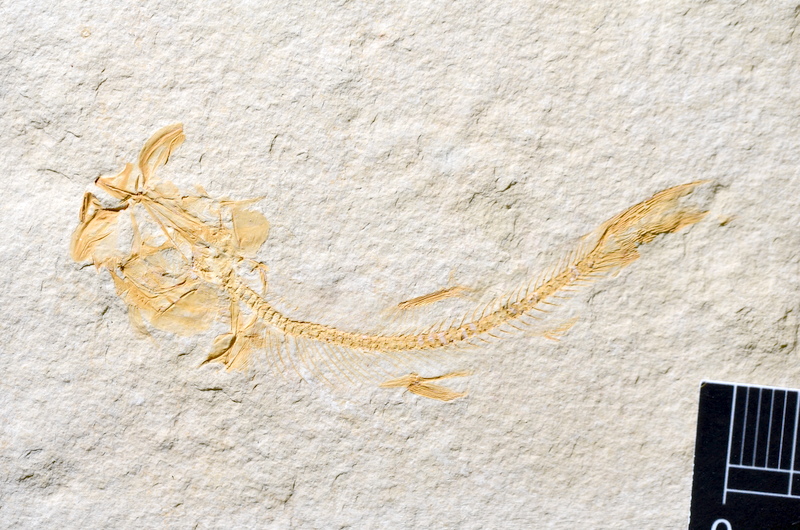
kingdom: Animalia
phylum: Chordata
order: Salmoniformes
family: Orthogonikleithridae
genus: Leptolepides
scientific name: Leptolepides
